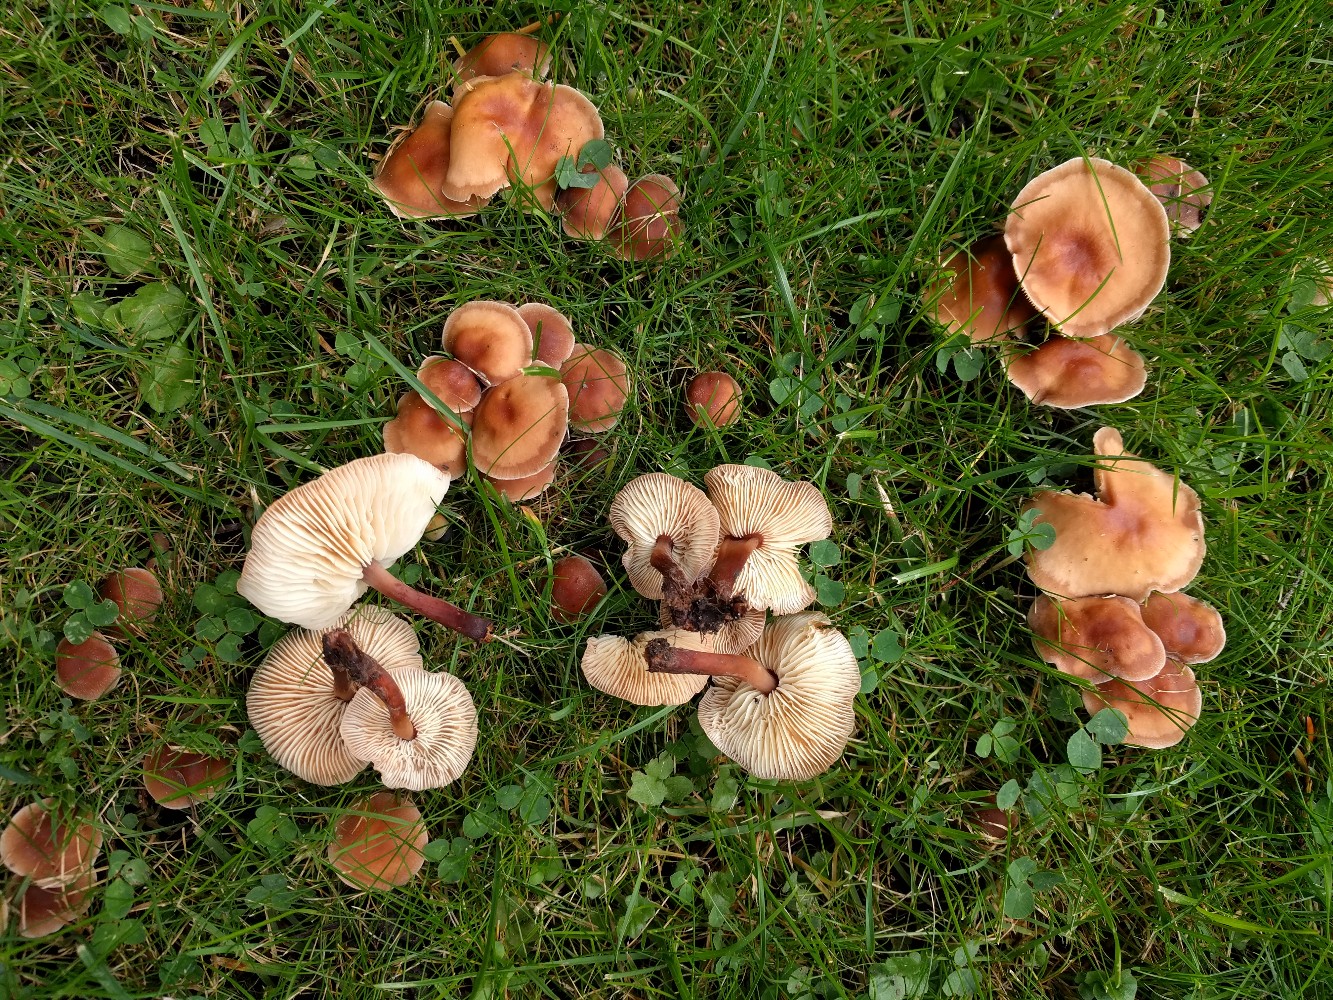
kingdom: Fungi
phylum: Basidiomycota
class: Agaricomycetes
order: Agaricales
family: Omphalotaceae
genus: Gymnopus
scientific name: Gymnopus erythropus
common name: rødstokket fladhat
